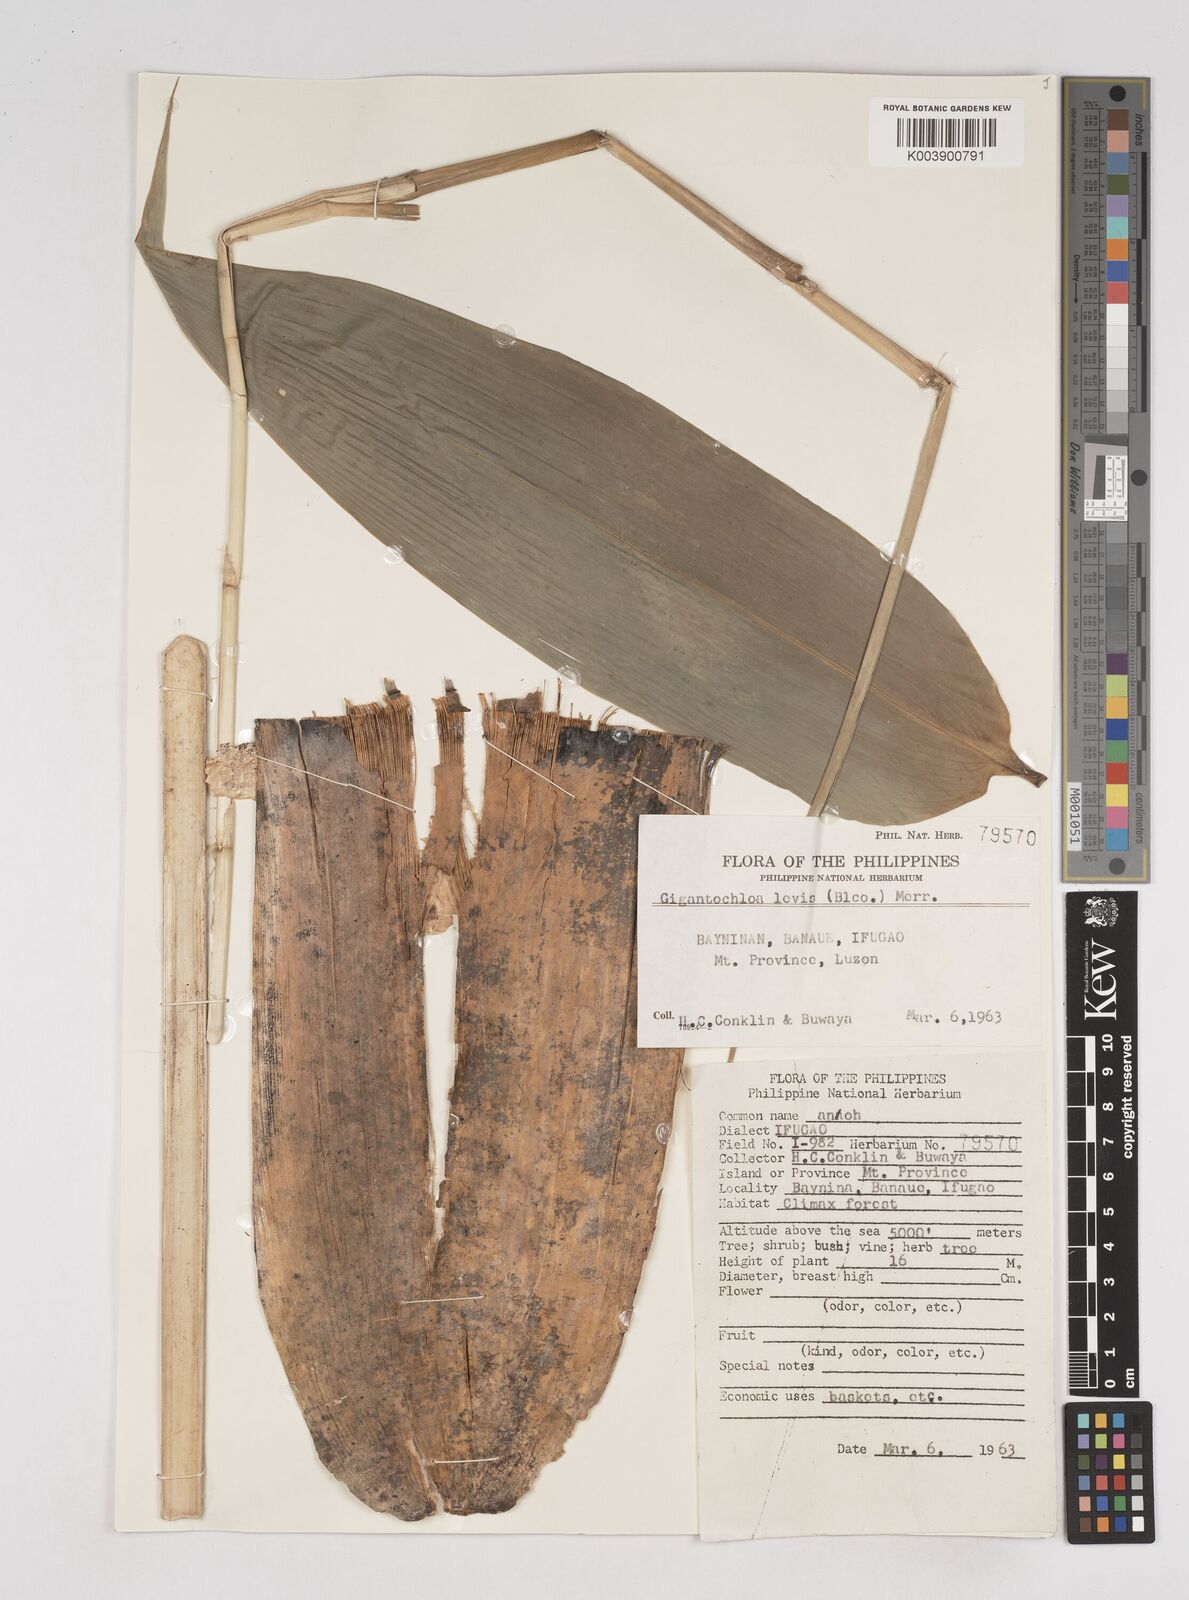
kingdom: Plantae
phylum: Tracheophyta
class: Liliopsida
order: Poales
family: Poaceae
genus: Gigantochloa
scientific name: Gigantochloa levis
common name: Smooth-shoot gigantochloa
